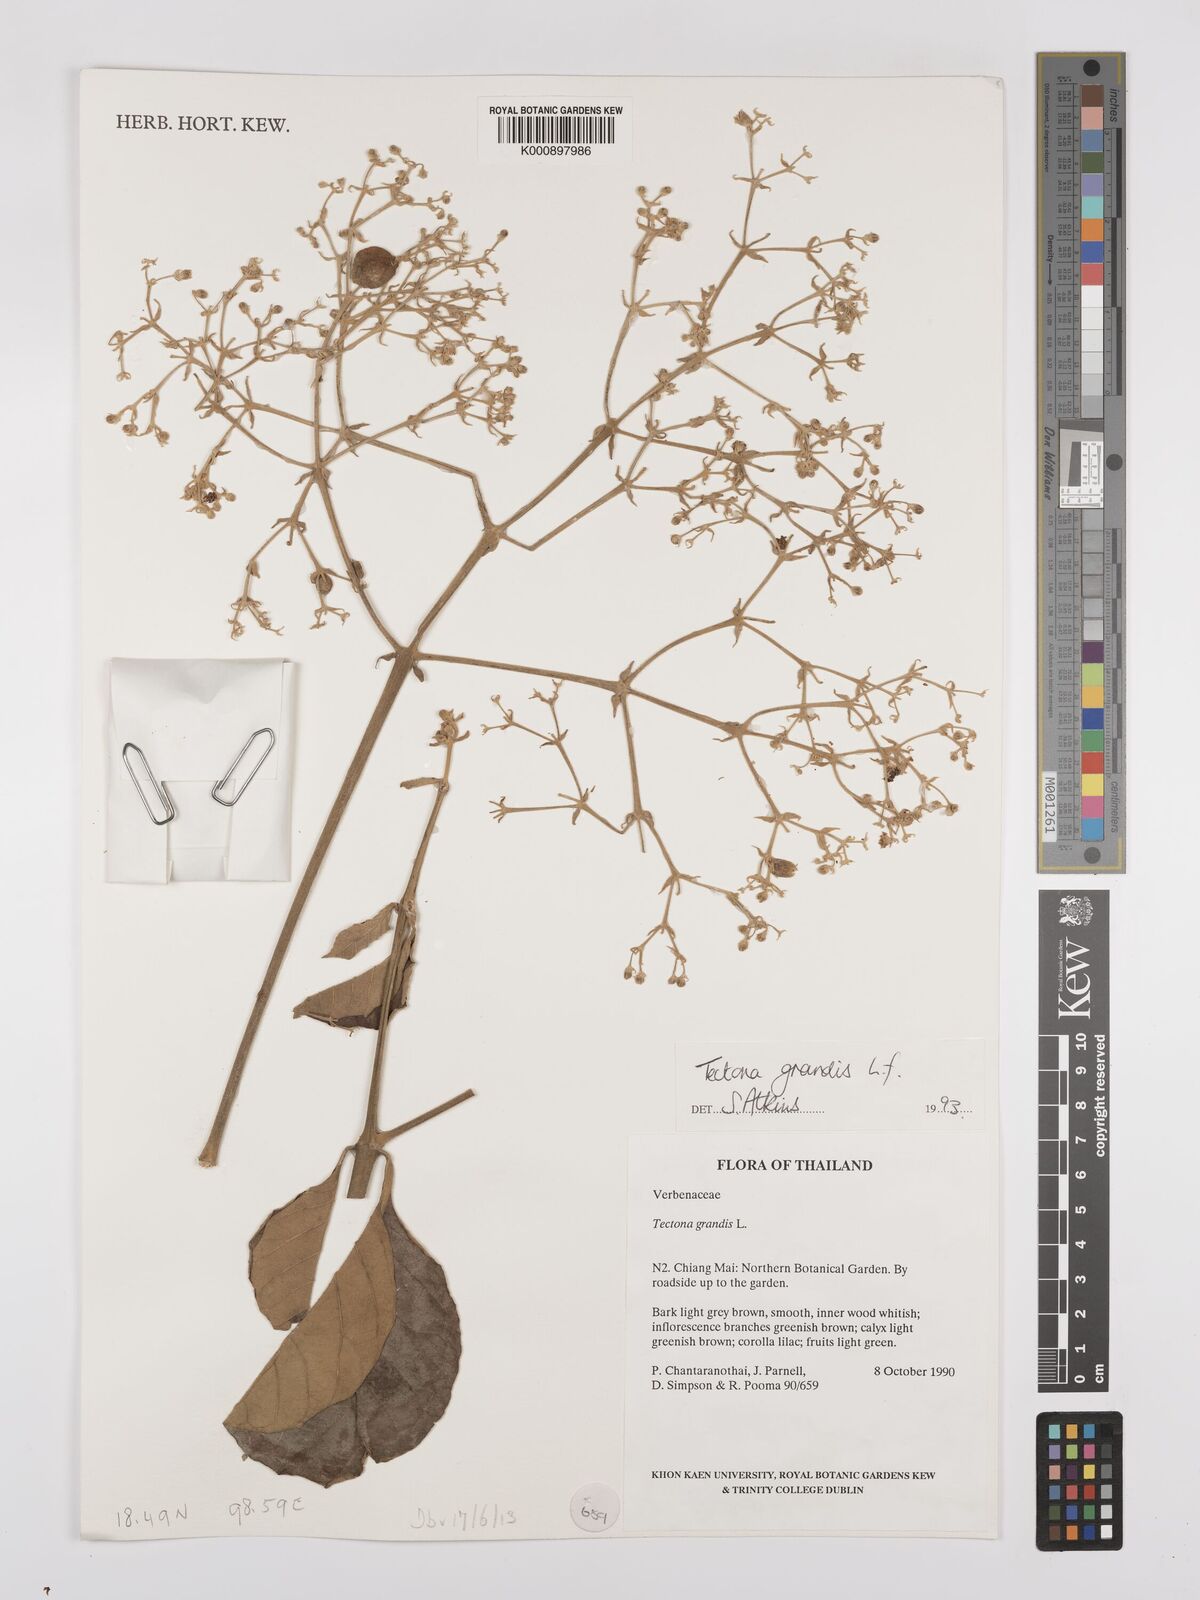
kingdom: Plantae
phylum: Tracheophyta
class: Magnoliopsida
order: Lamiales
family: Lamiaceae
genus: Tectona
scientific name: Tectona grandis
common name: Teak
